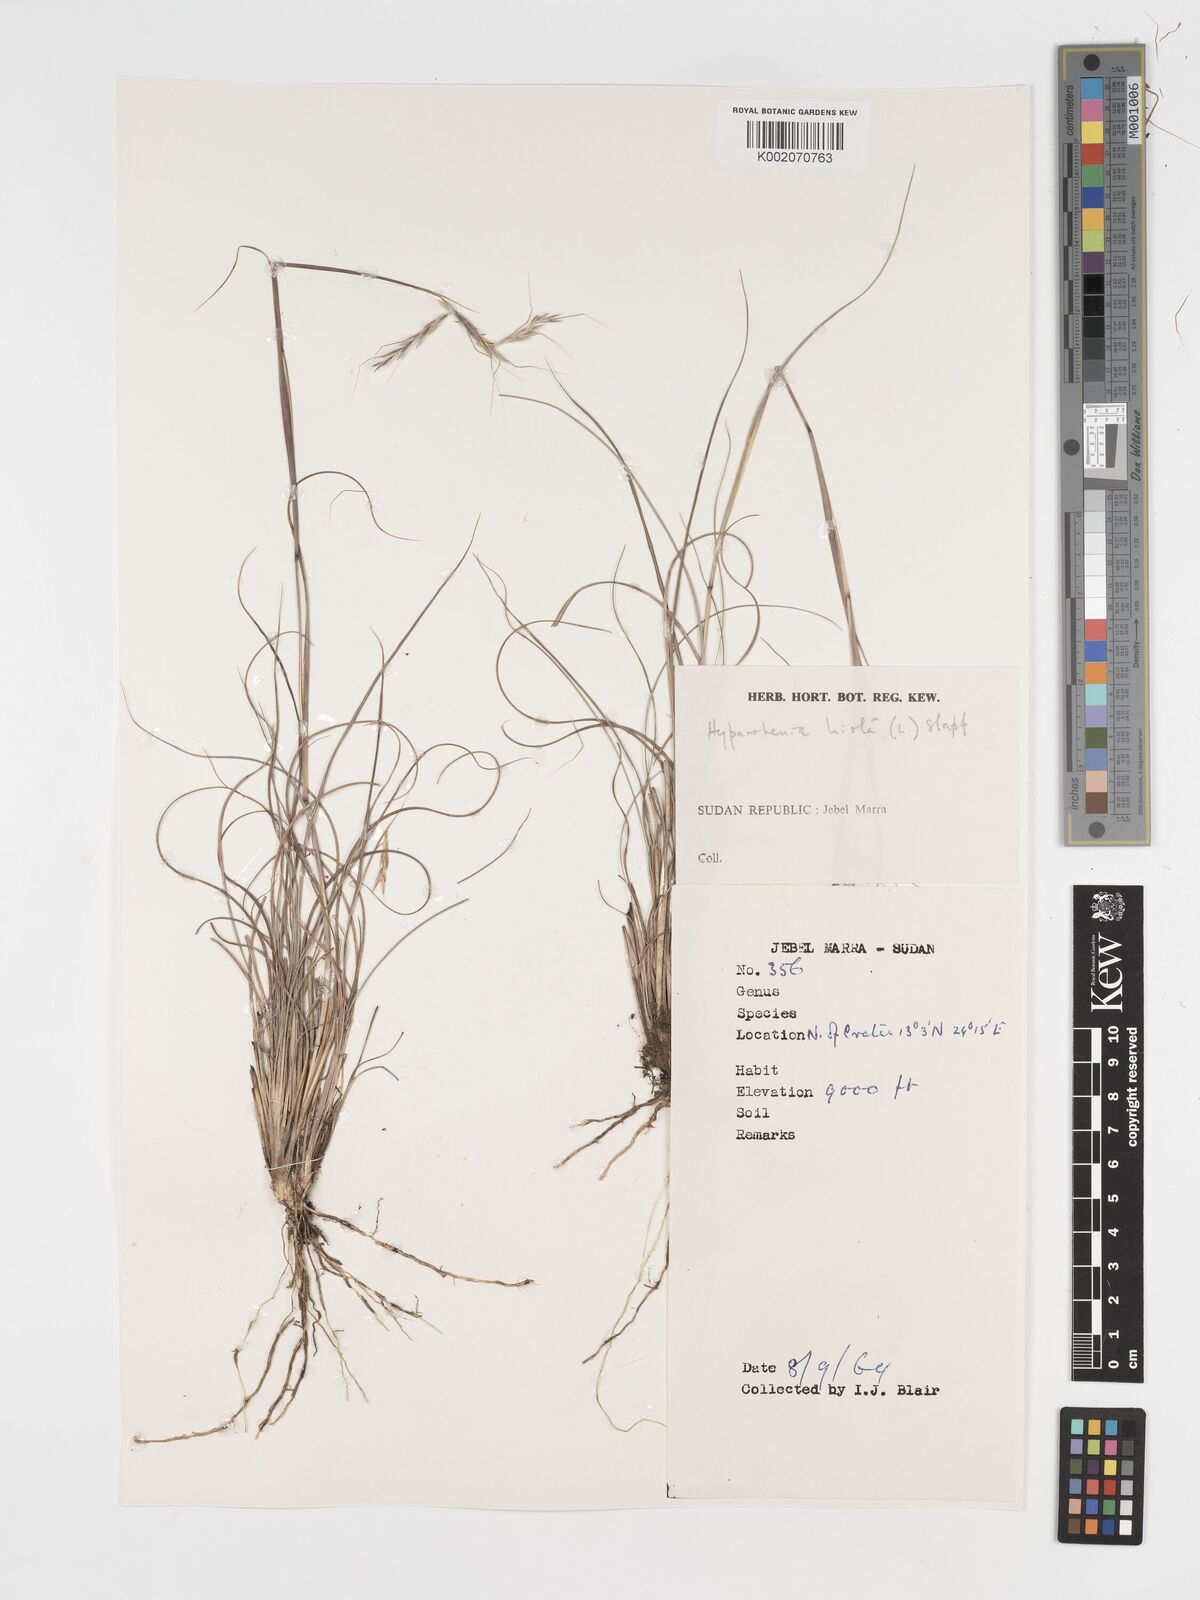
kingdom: Plantae
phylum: Tracheophyta
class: Liliopsida
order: Poales
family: Poaceae
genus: Hyparrhenia
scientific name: Hyparrhenia hirta
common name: Thatching grass
